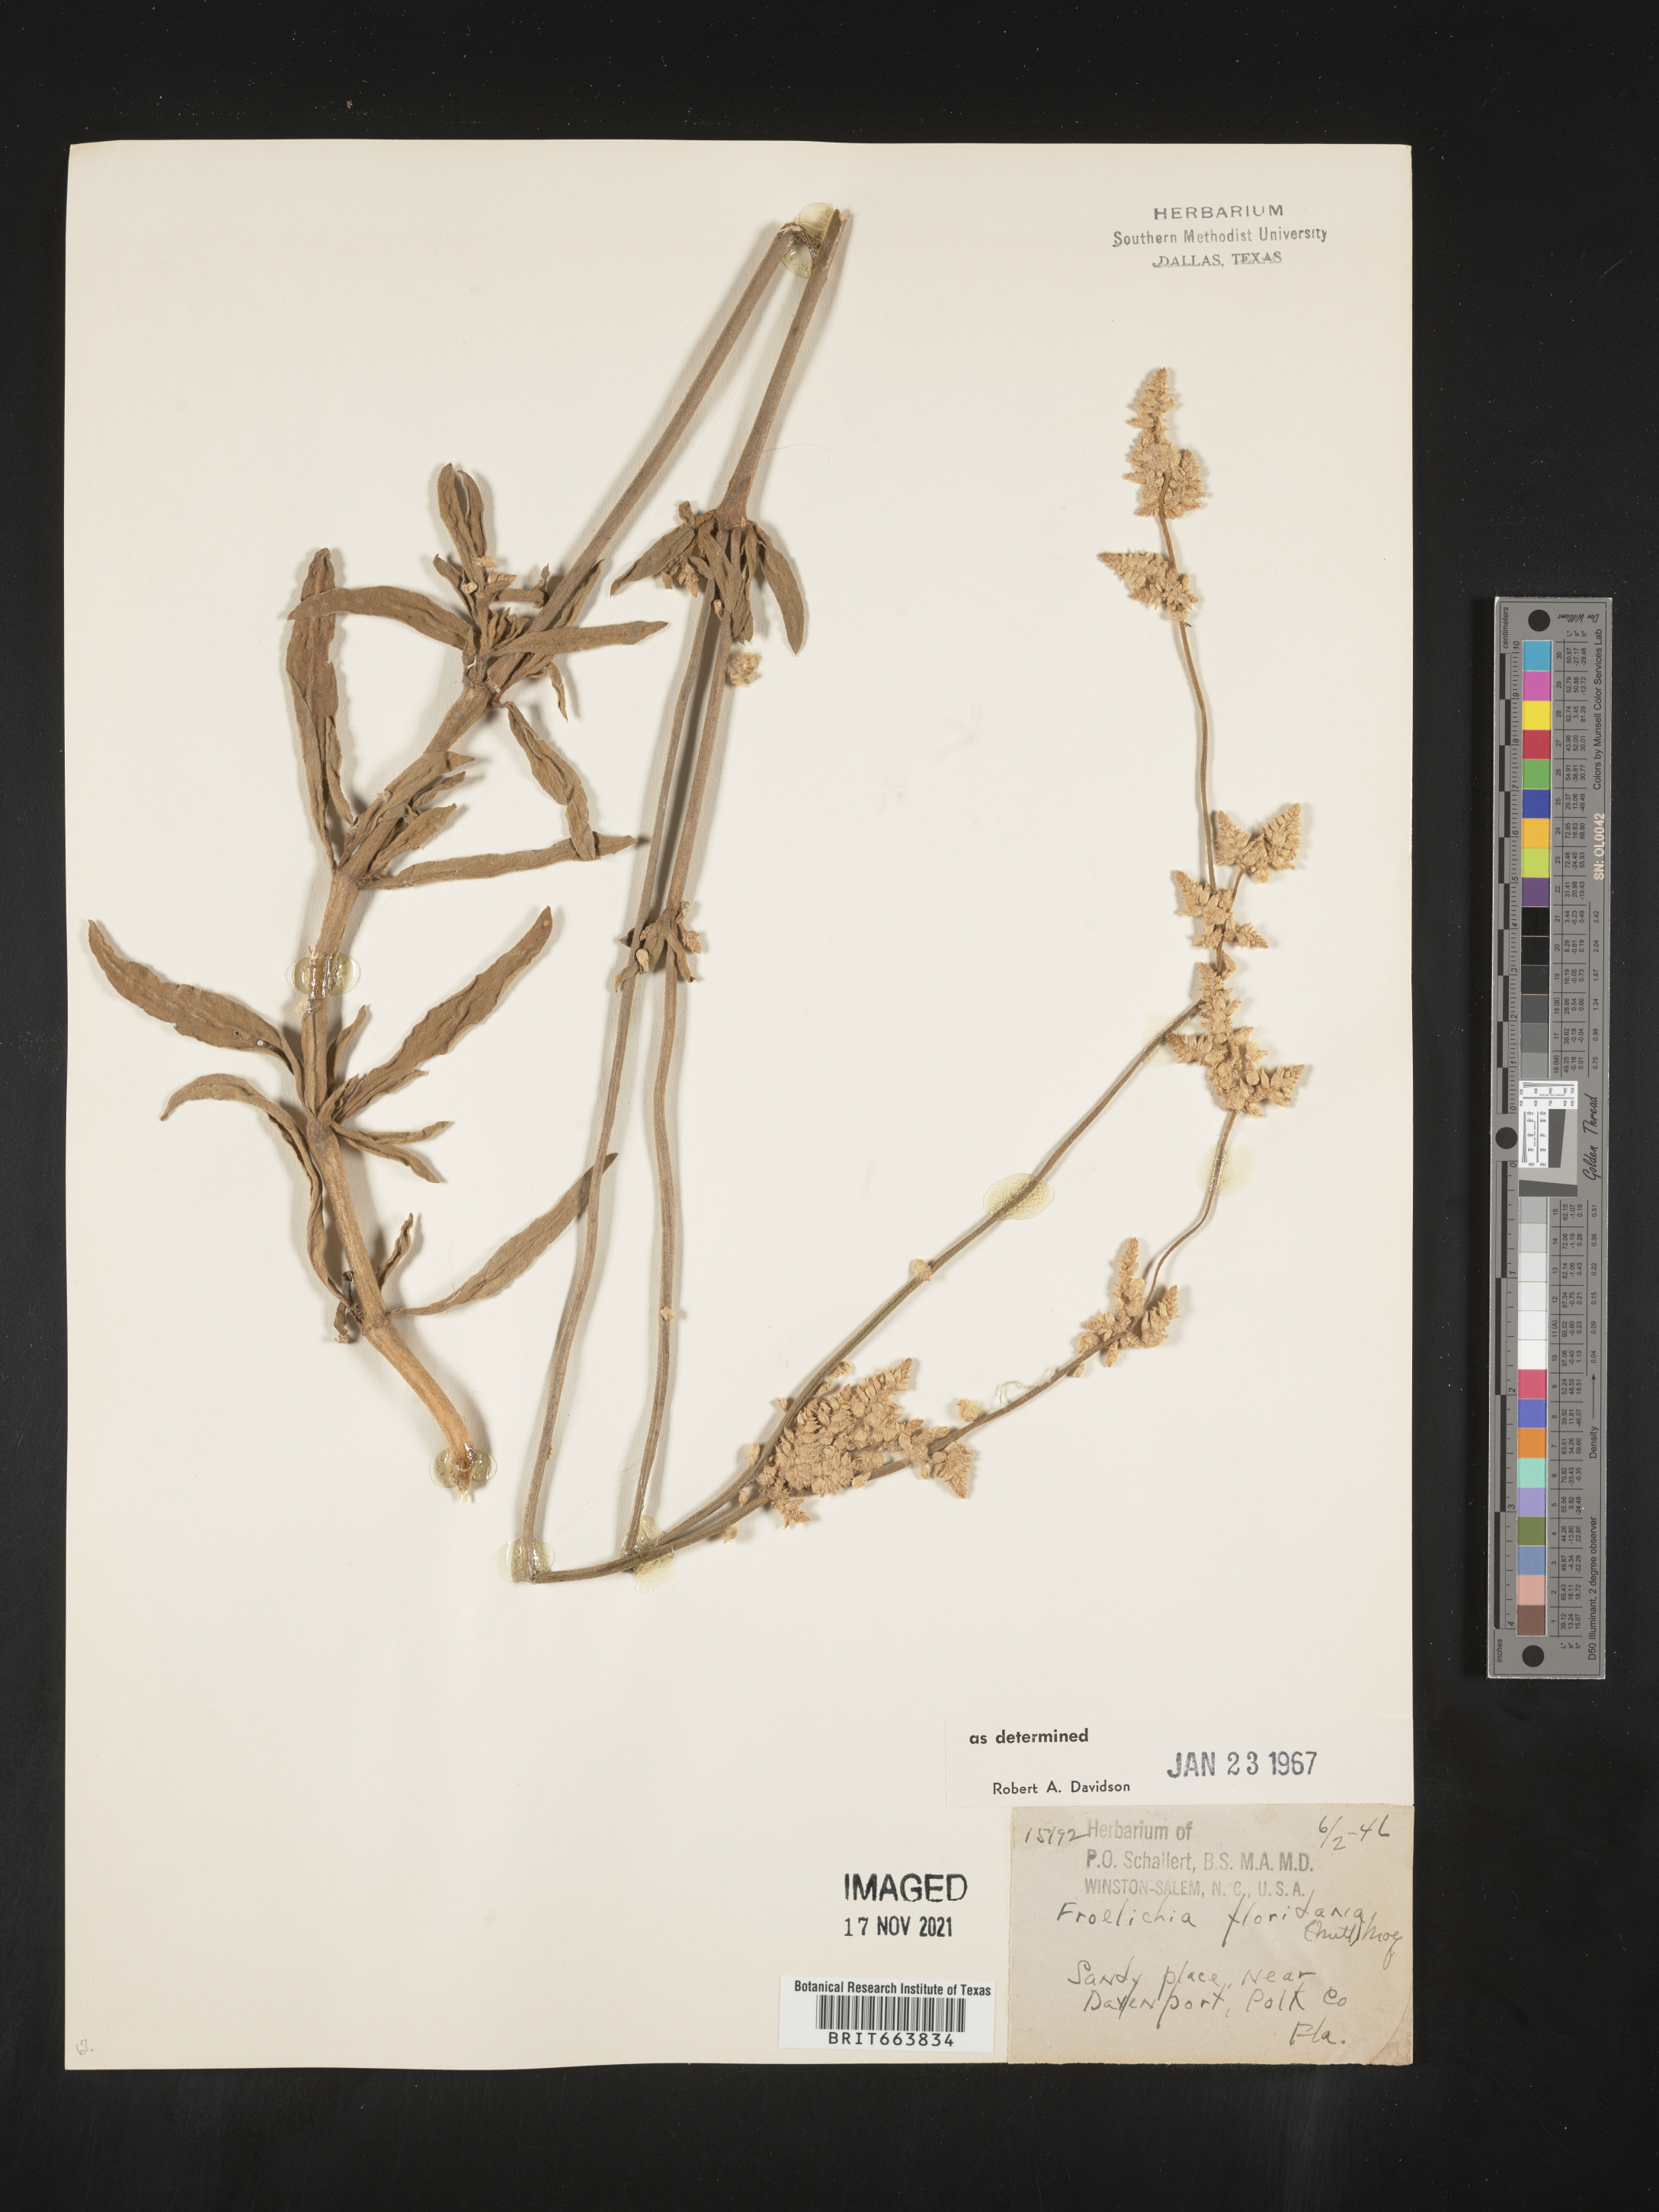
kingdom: Plantae
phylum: Tracheophyta
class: Magnoliopsida
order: Caryophyllales
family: Amaranthaceae
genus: Froelichia
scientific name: Froelichia floridana
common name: Florida snake-cotton
